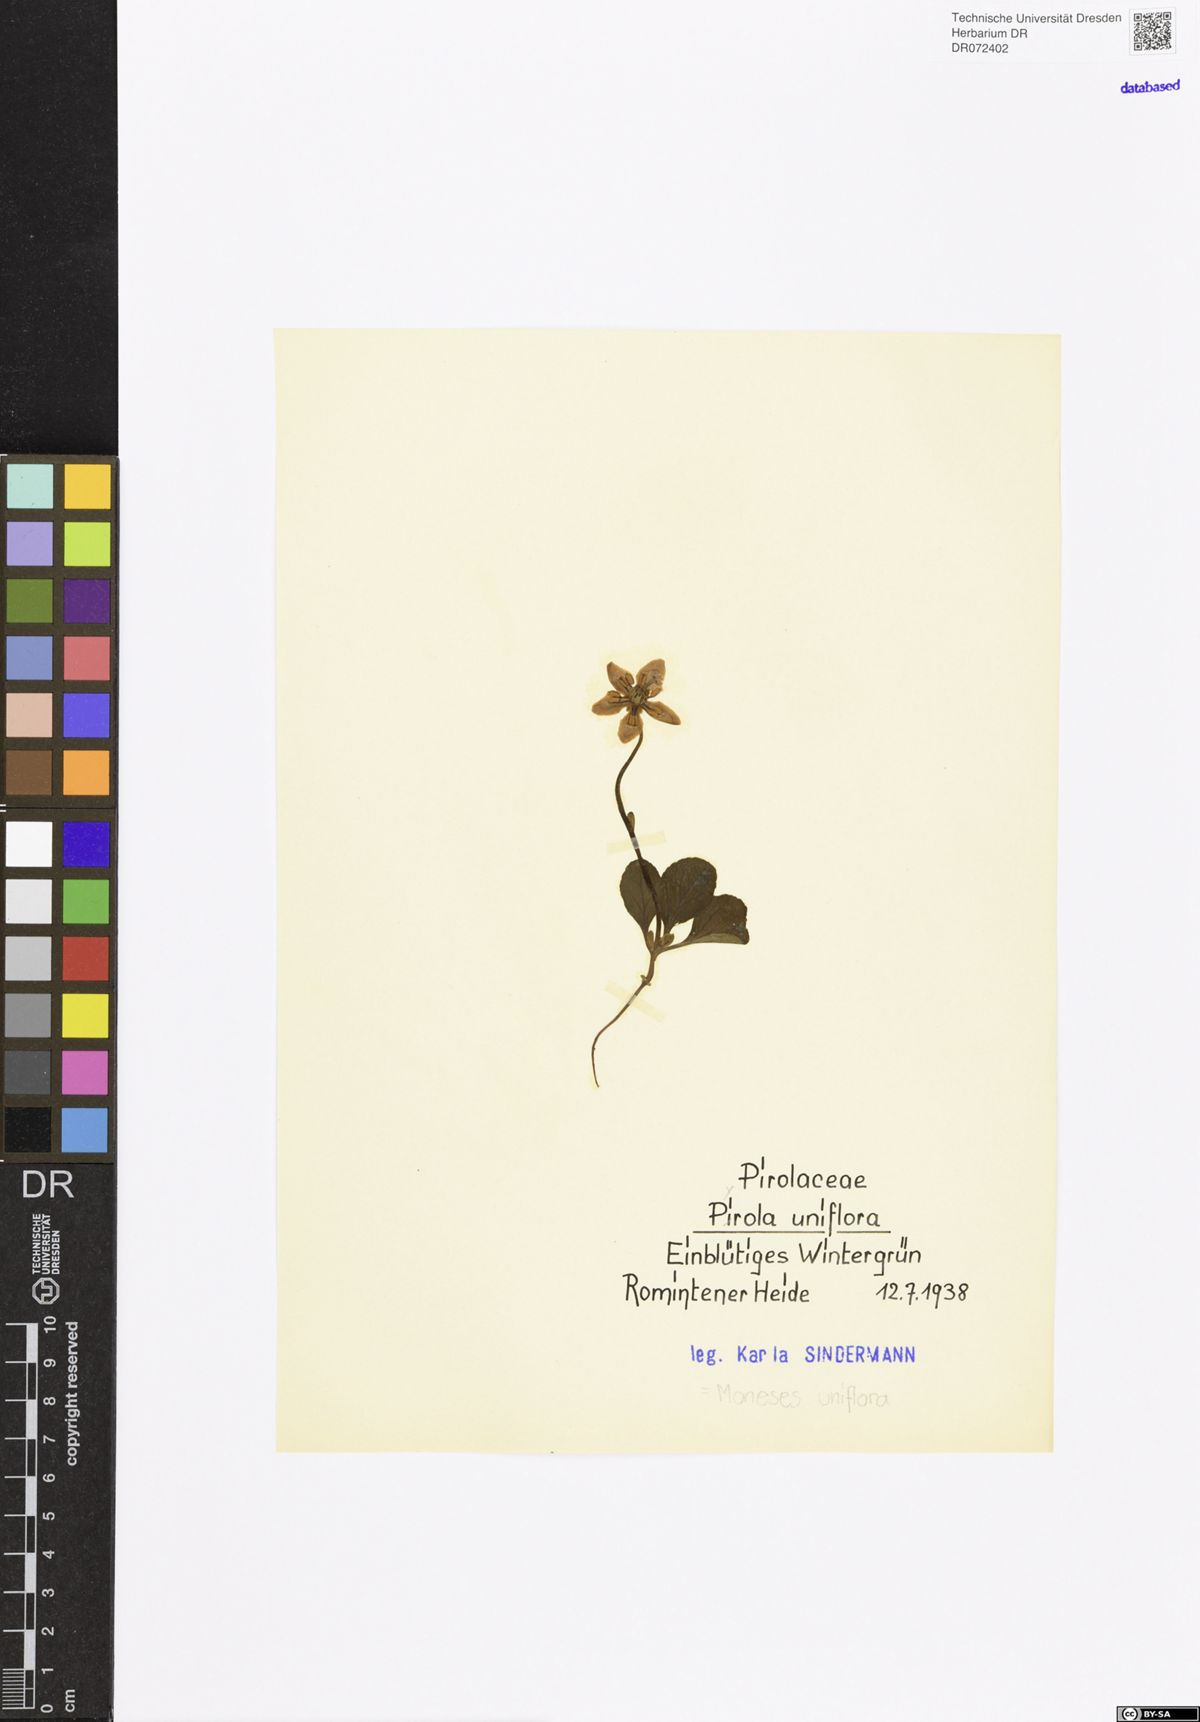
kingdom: Plantae
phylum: Tracheophyta
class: Magnoliopsida
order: Ericales
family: Ericaceae
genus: Moneses
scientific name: Moneses uniflora
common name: One-flowered wintergreen
